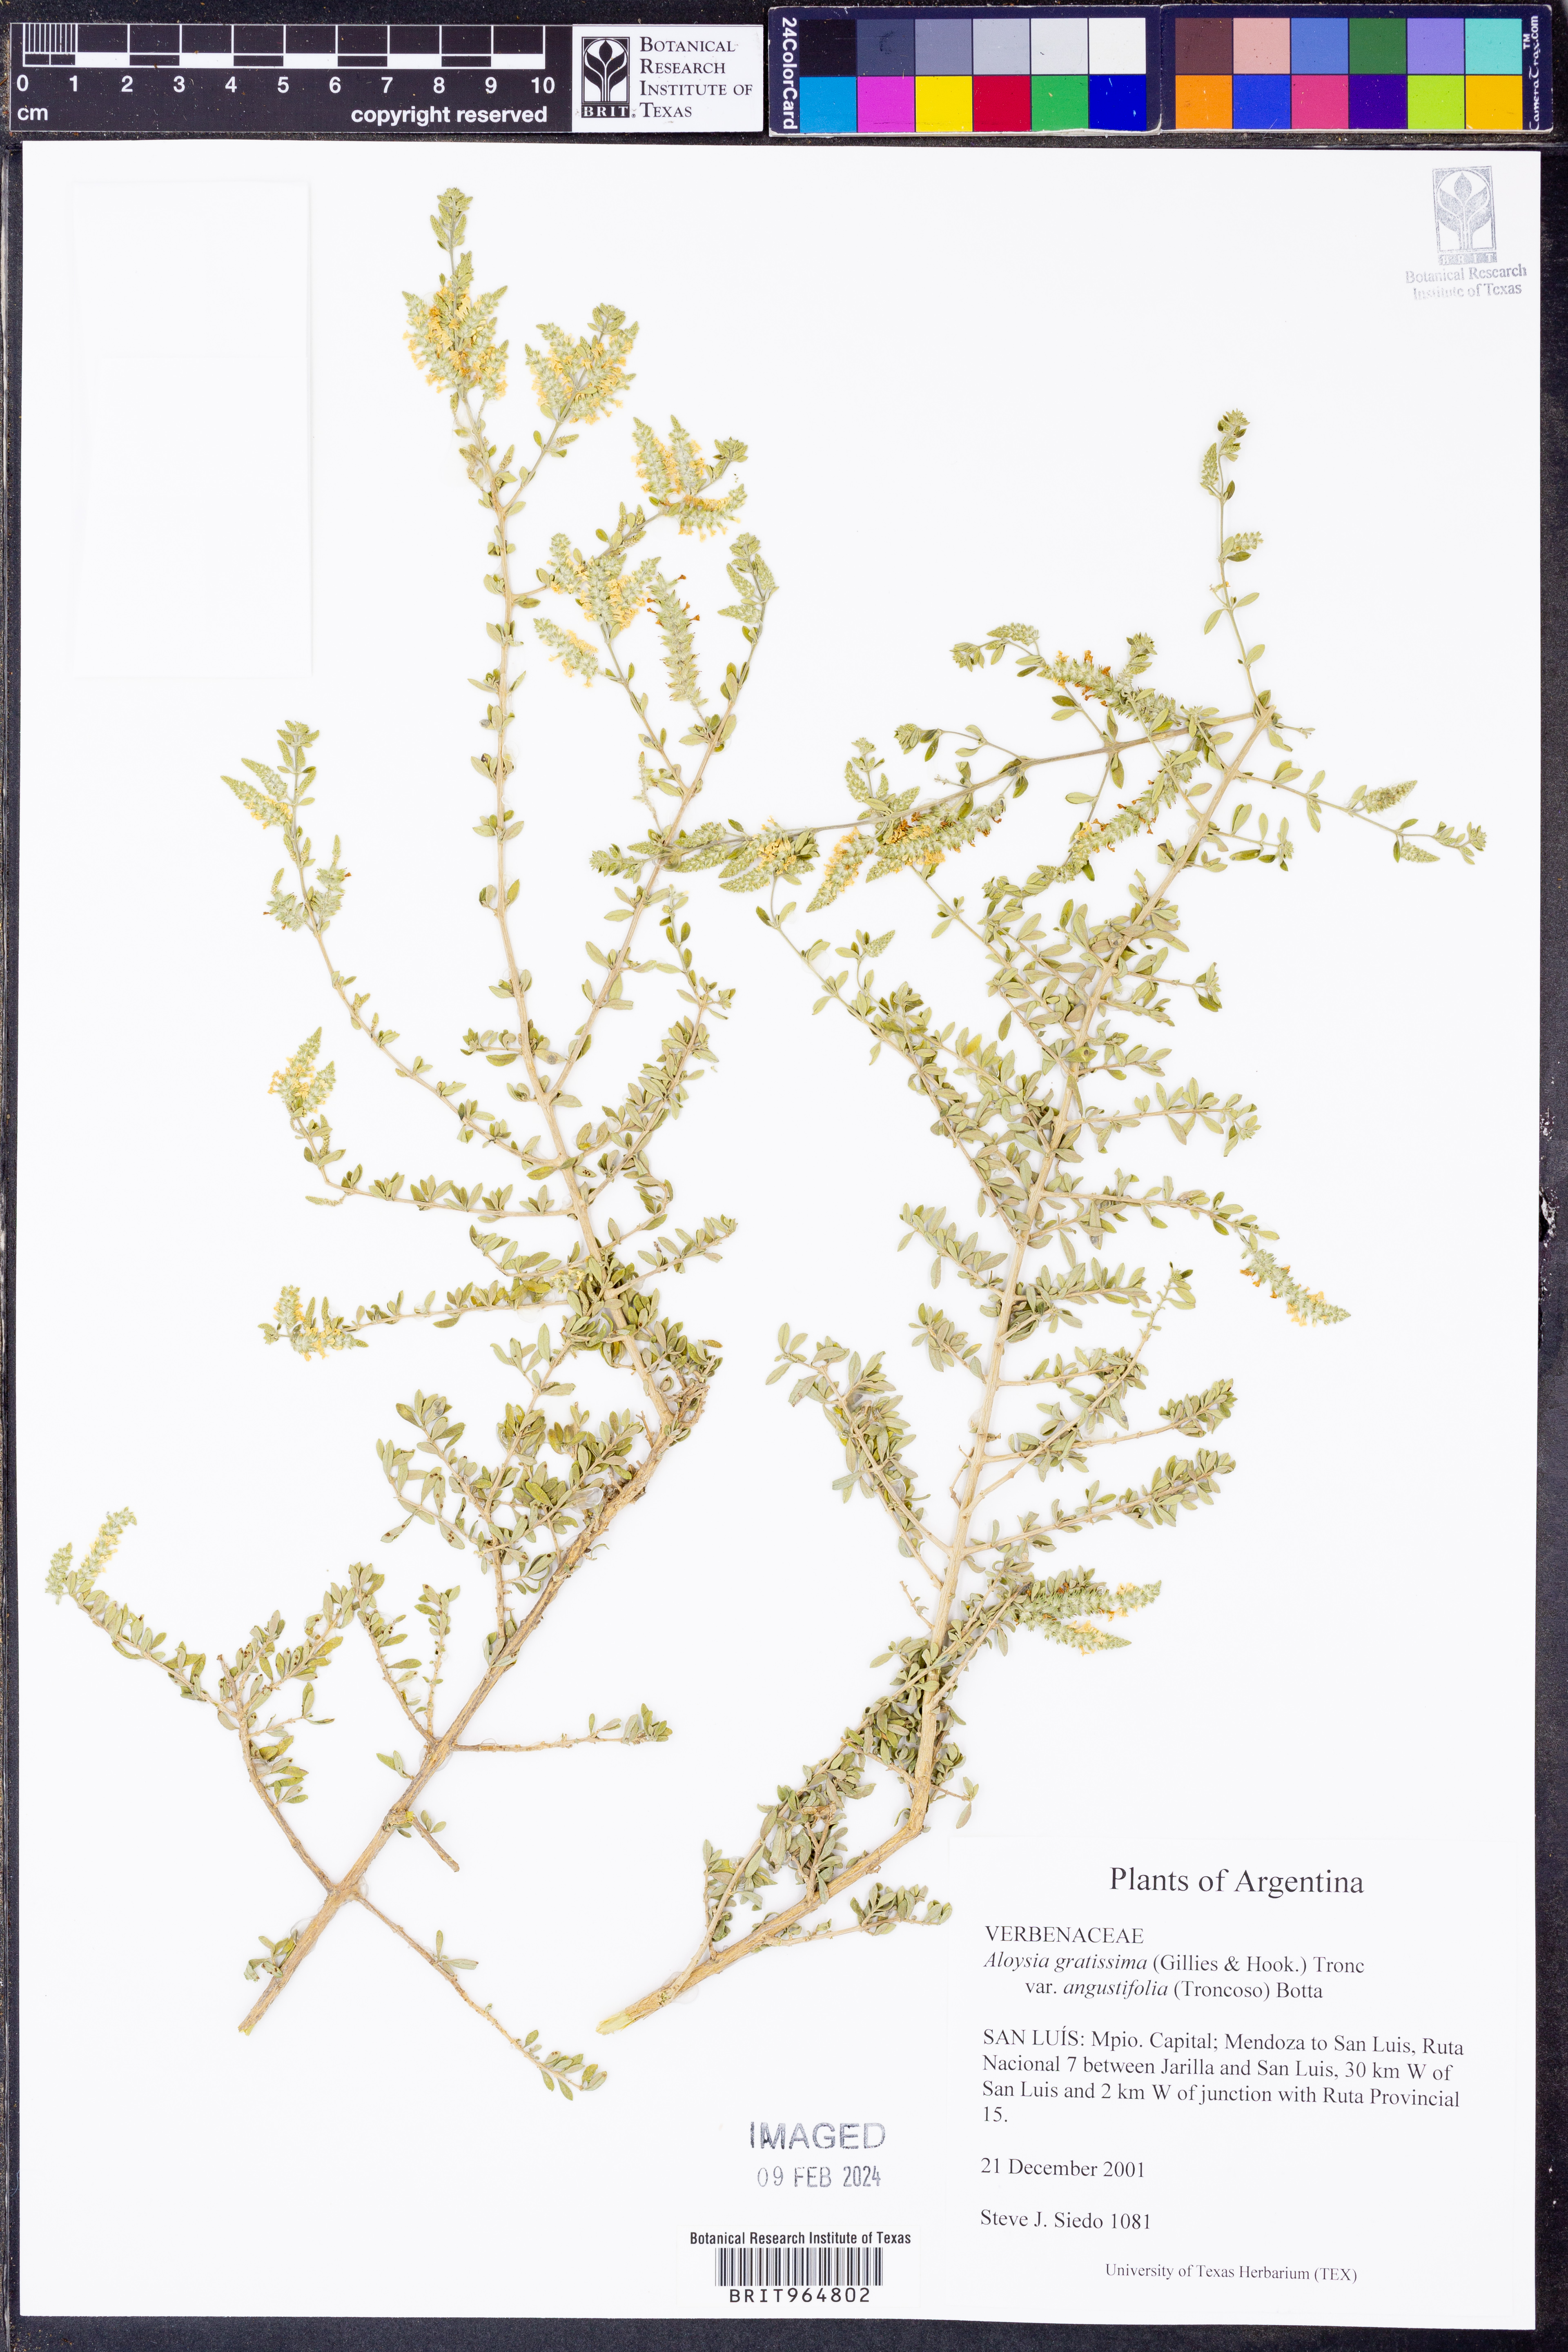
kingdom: Plantae
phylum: Tracheophyta
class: Magnoliopsida
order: Lamiales
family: Verbenaceae
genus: Aloysia
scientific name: Aloysia
